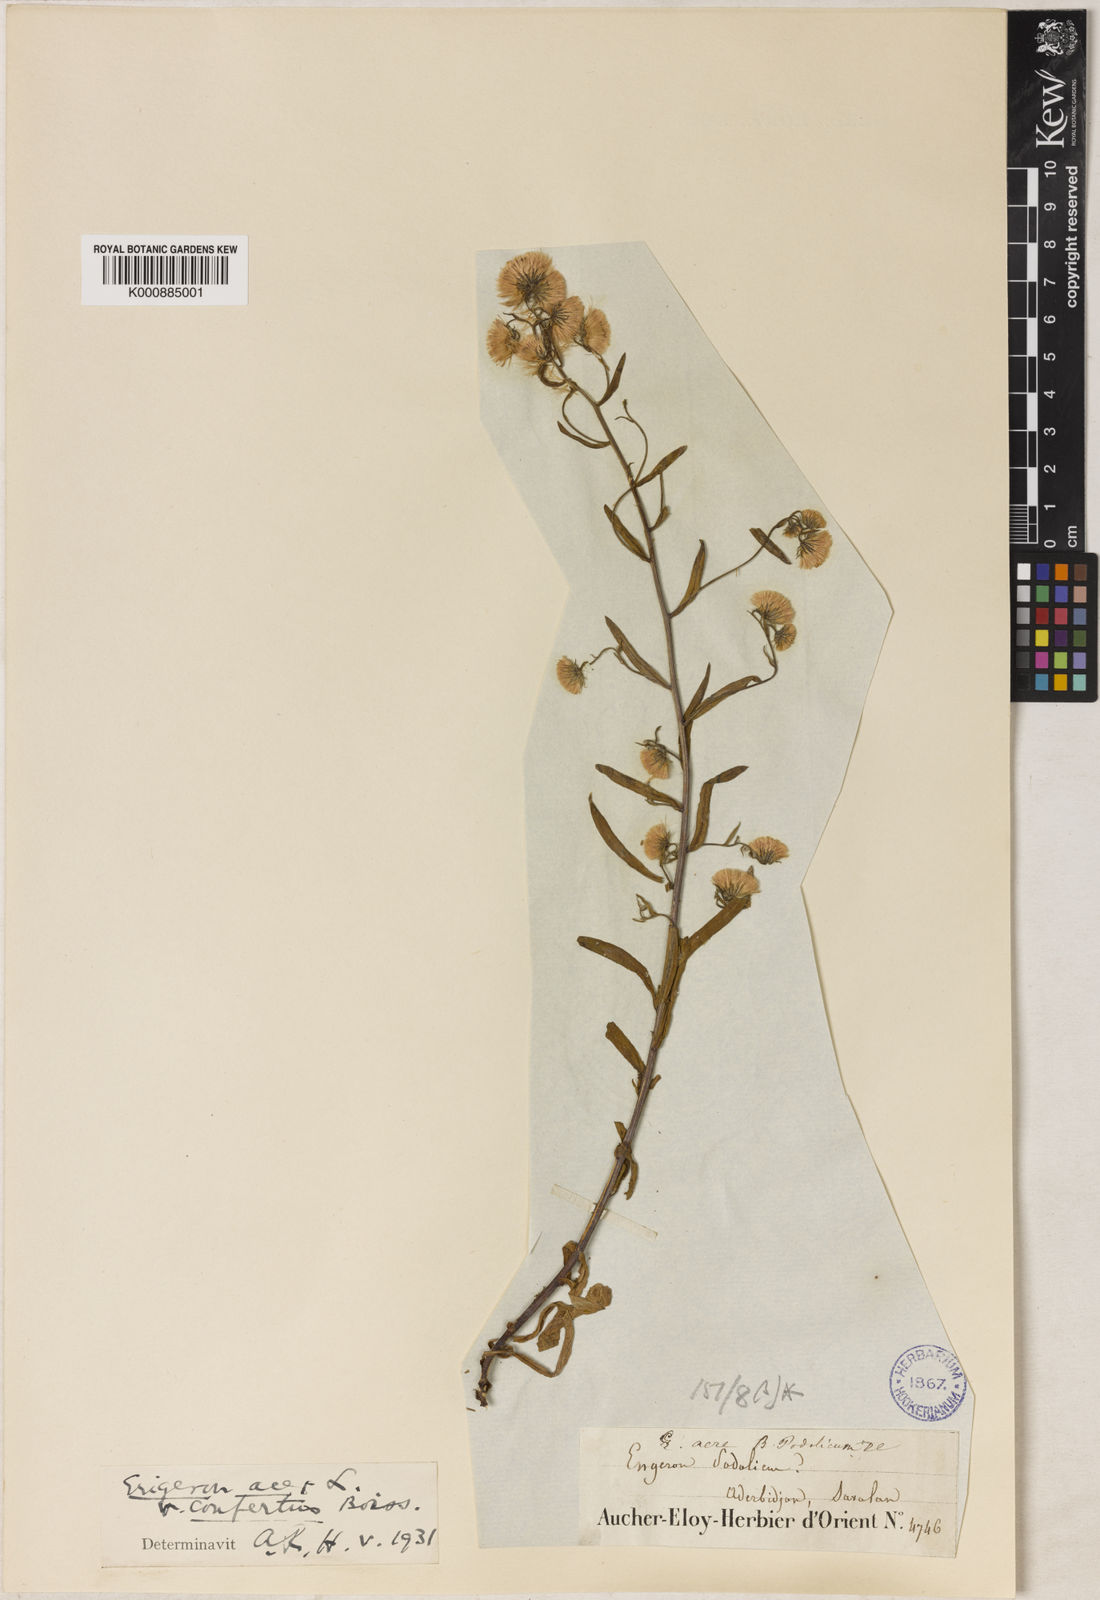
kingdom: Plantae
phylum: Tracheophyta
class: Magnoliopsida
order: Asterales
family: Asteraceae
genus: Erigeron
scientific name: Erigeron acris
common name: Blue fleabane
